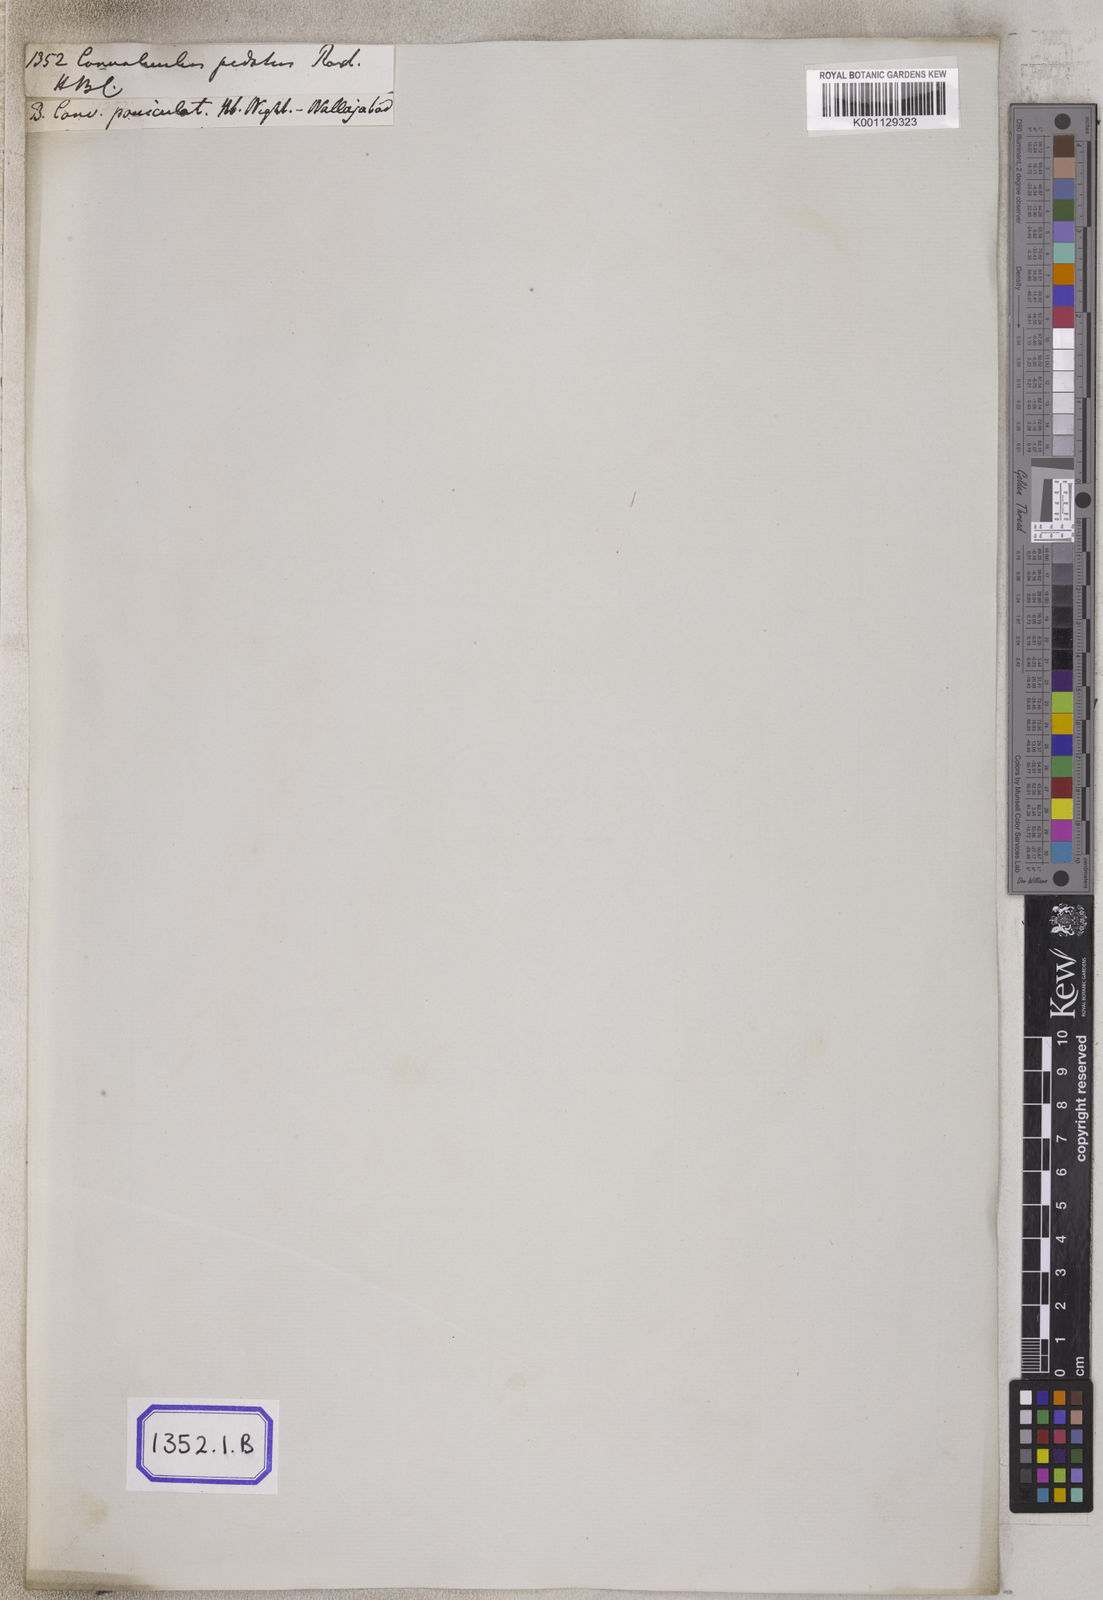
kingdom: Plantae
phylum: Tracheophyta
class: Magnoliopsida
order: Solanales
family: Convolvulaceae
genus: Ipomoea
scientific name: Ipomoea tuberculata
